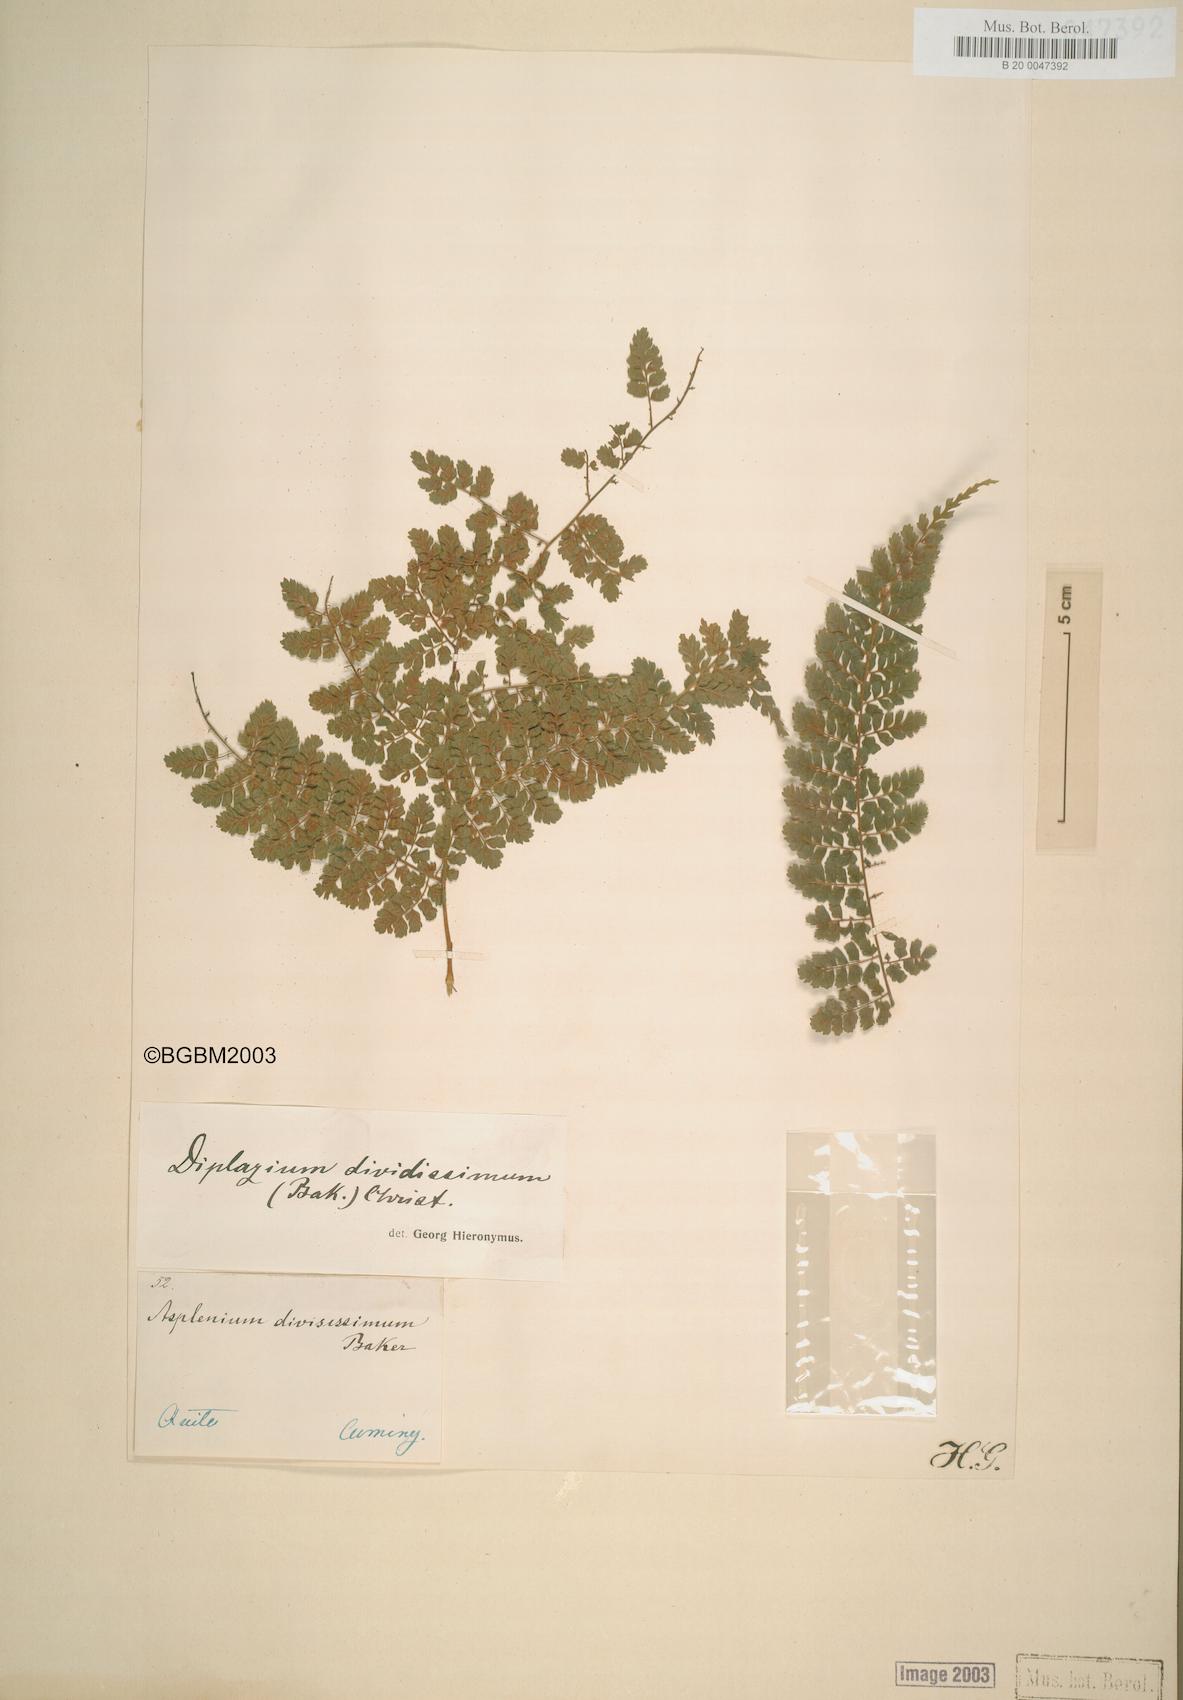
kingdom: Plantae
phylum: Tracheophyta
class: Polypodiopsida
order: Polypodiales
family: Athyriaceae
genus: Diplazium
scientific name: Diplazium divisissimum
